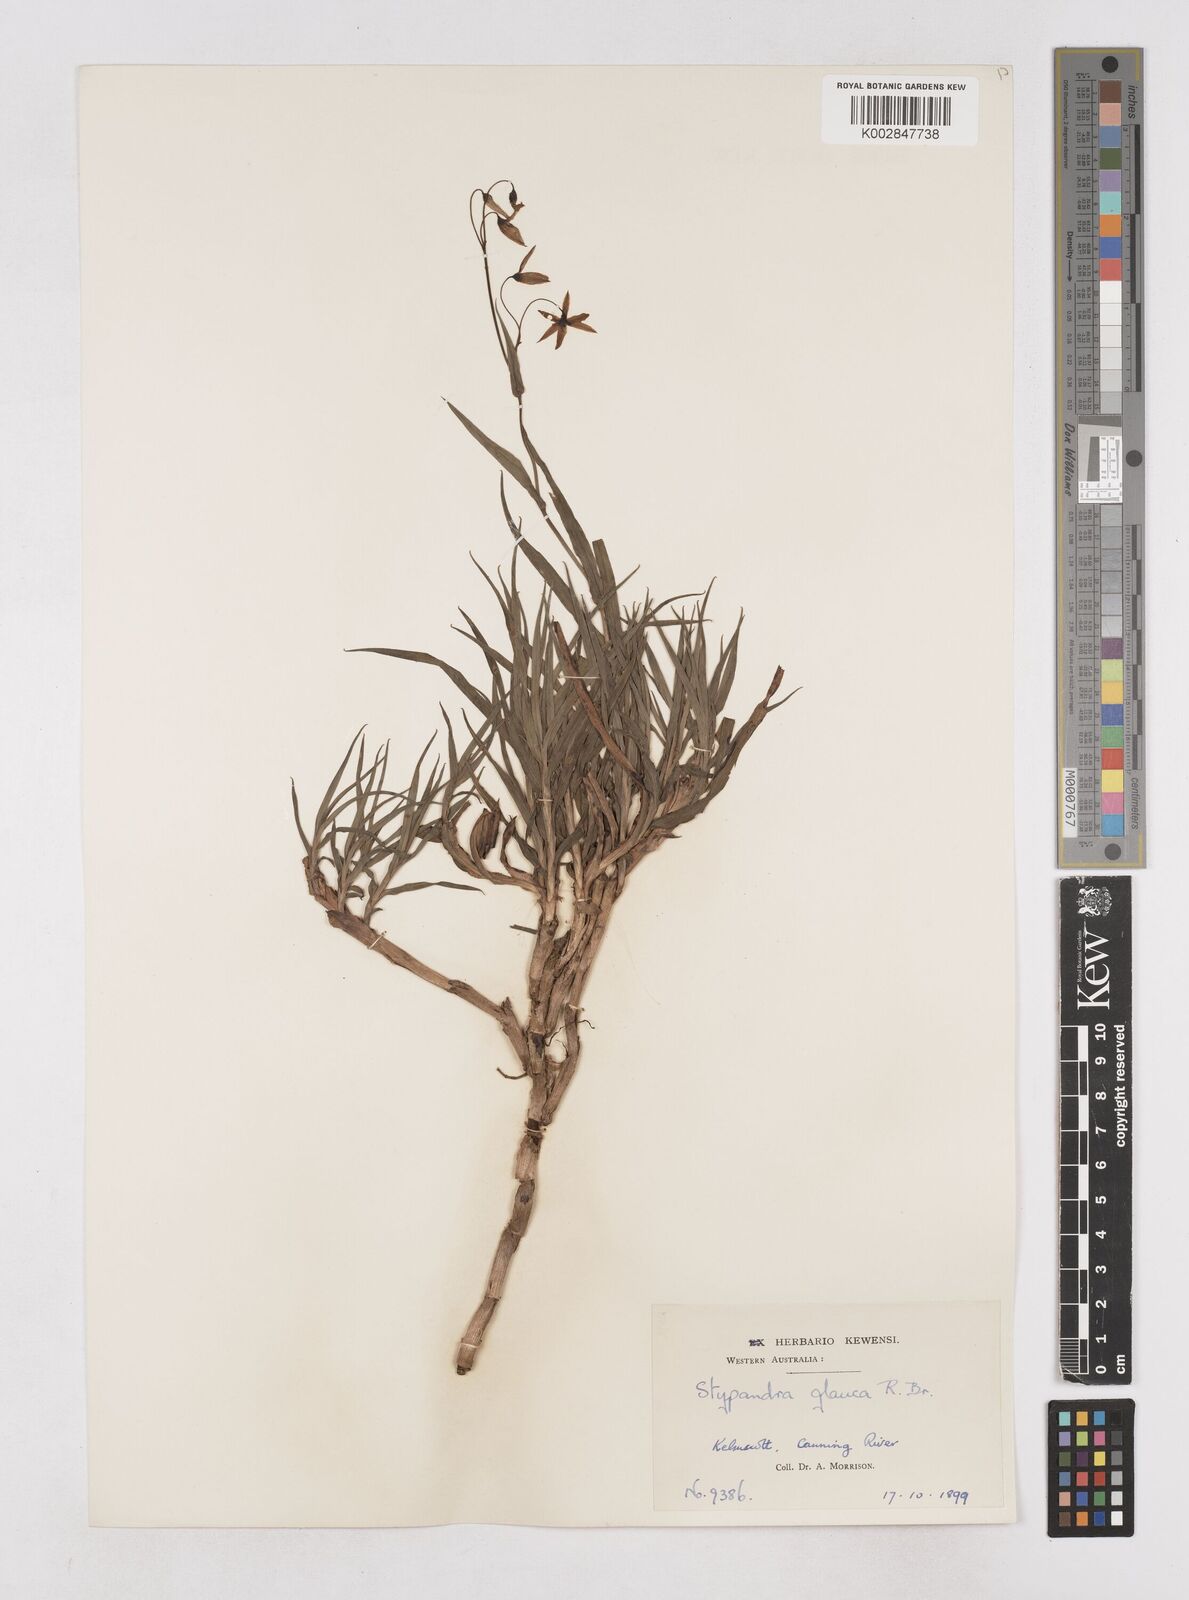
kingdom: Plantae
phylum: Tracheophyta
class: Liliopsida
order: Asparagales
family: Asphodelaceae
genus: Stypandra
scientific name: Stypandra glauca
